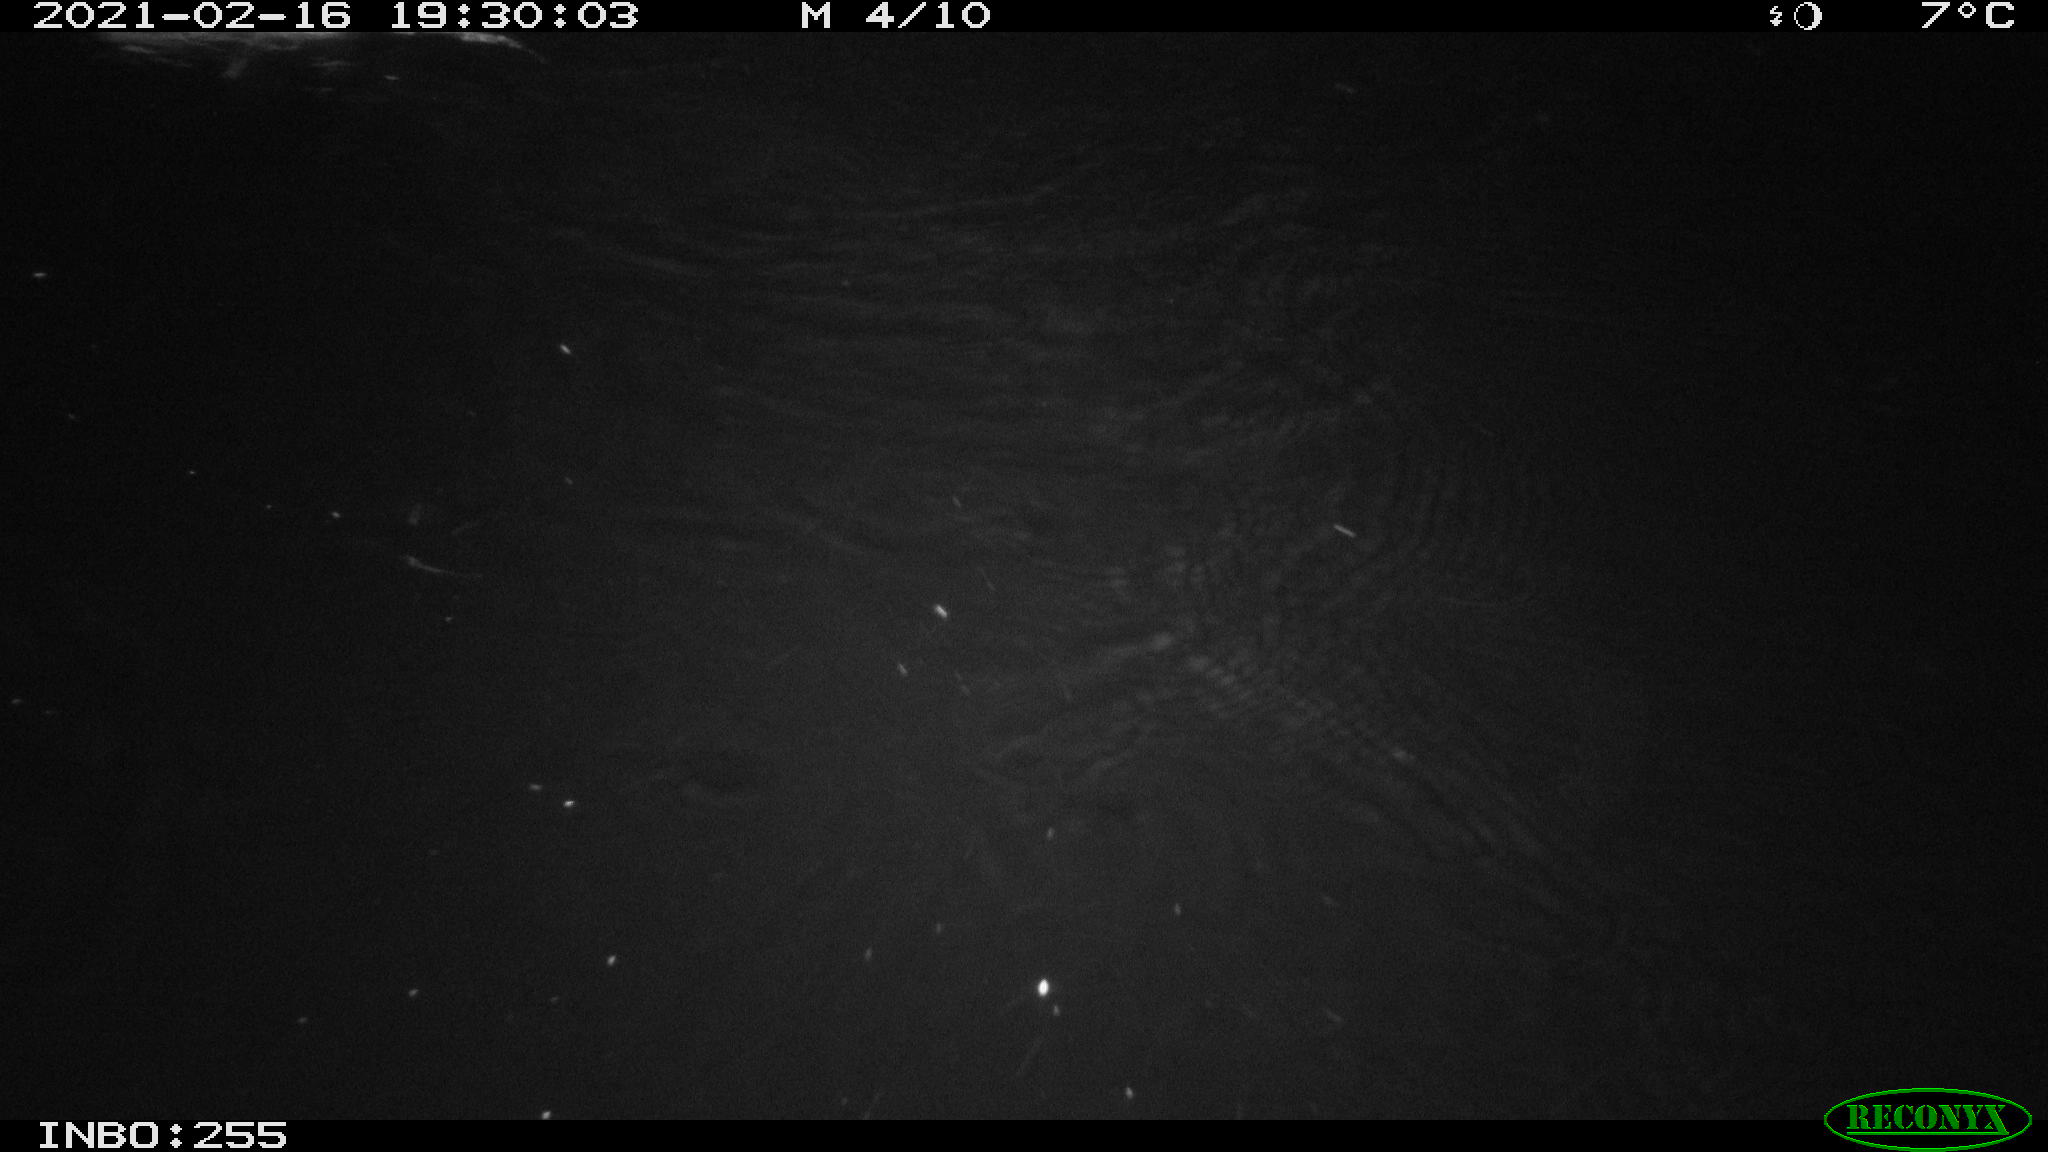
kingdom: Animalia
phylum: Chordata
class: Mammalia
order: Rodentia
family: Muridae
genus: Rattus
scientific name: Rattus norvegicus
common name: Brown rat
